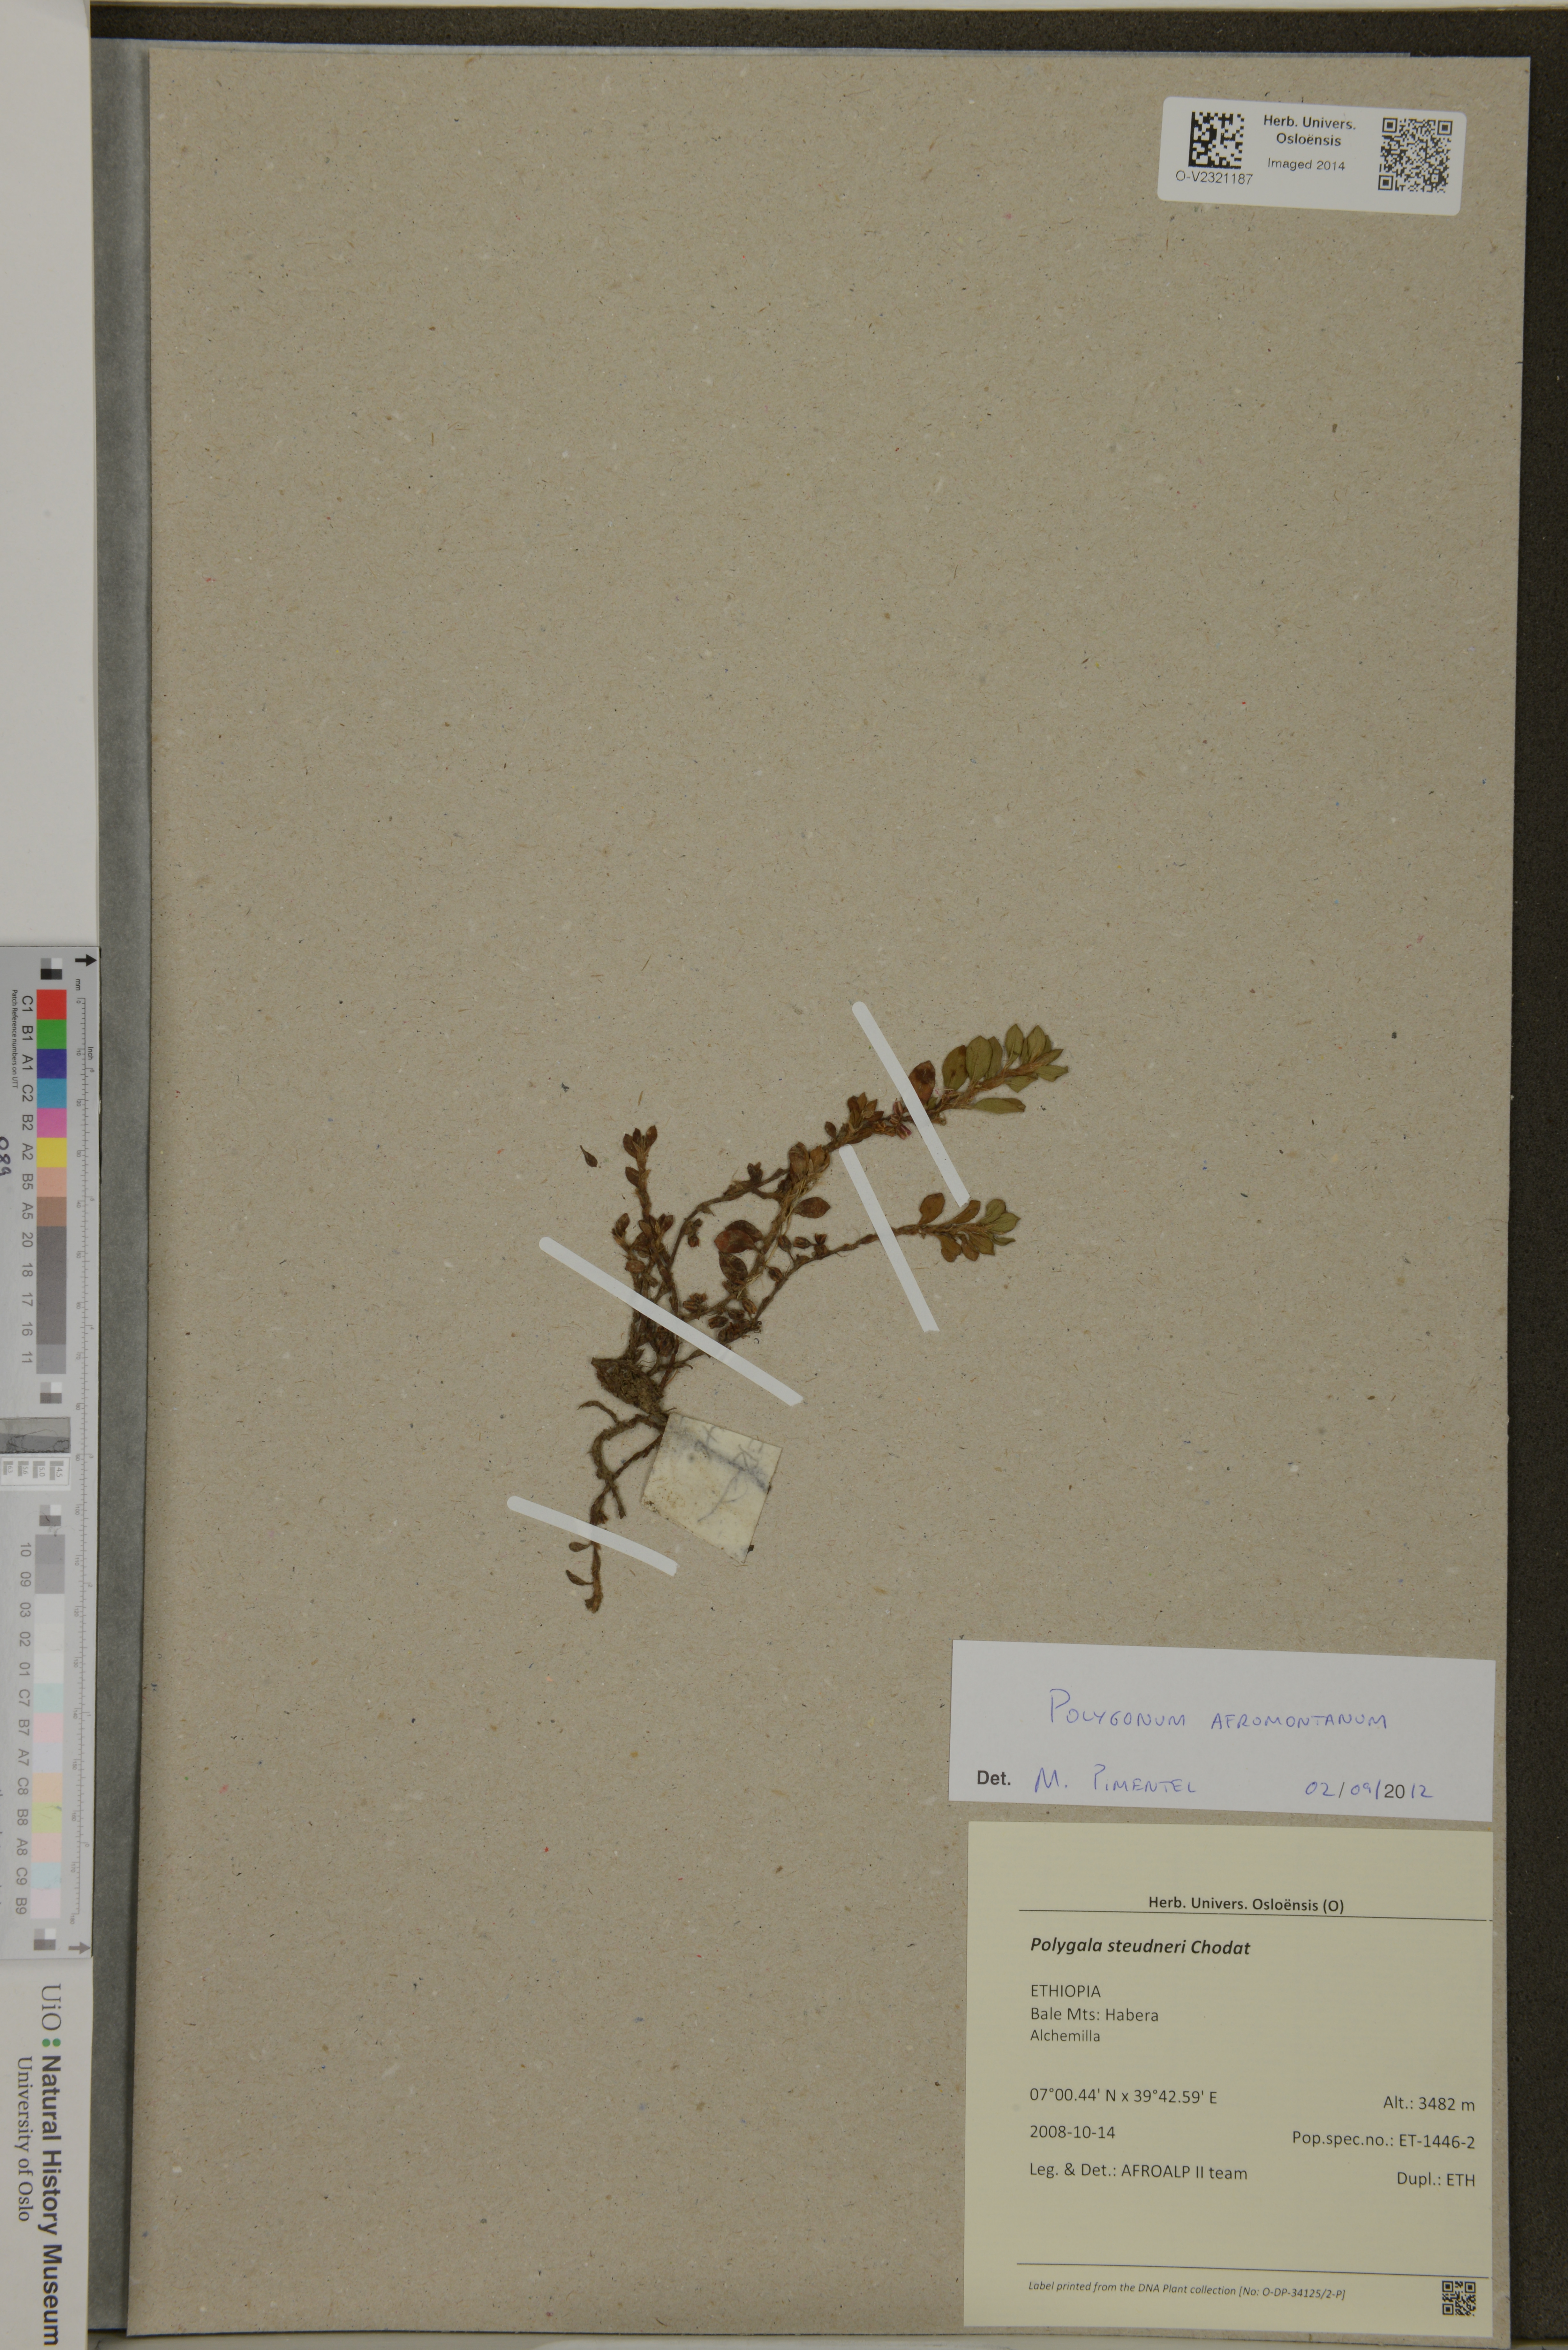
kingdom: Plantae
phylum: Tracheophyta
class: Magnoliopsida
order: Fabales
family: Polygalaceae
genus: Polygala
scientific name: Polygala steudneri
